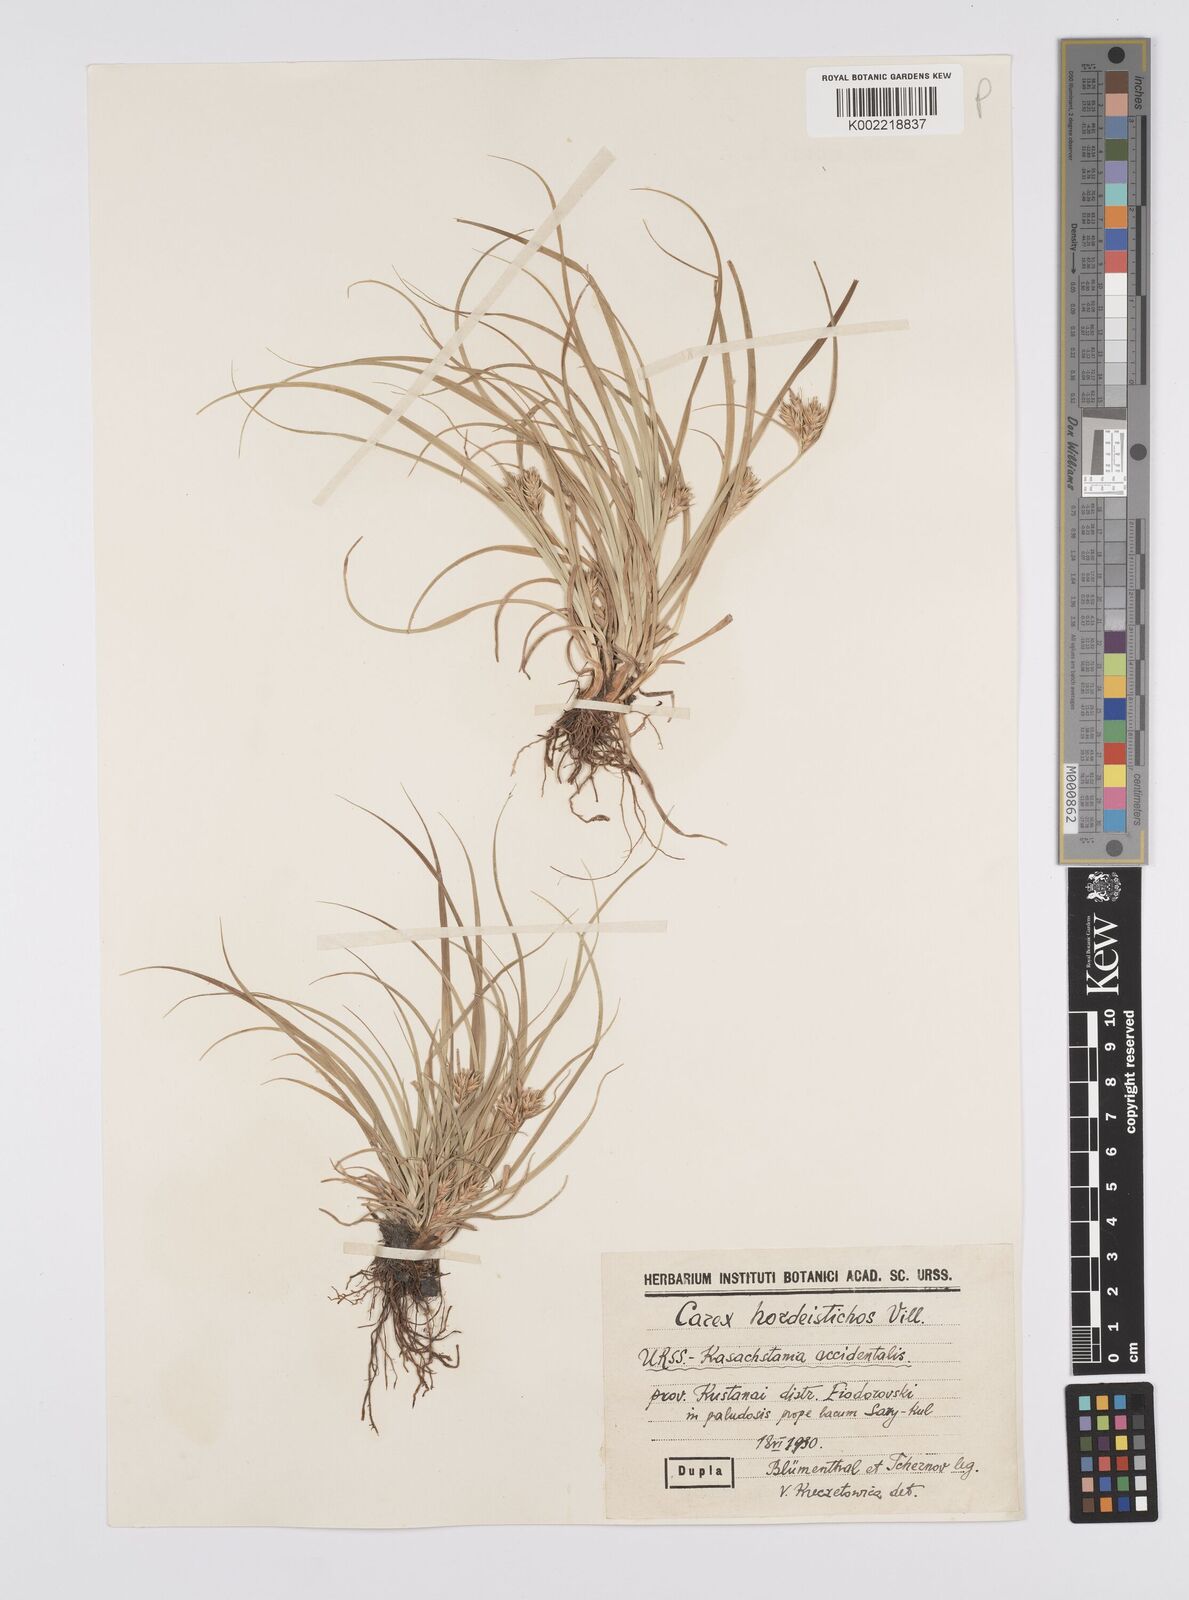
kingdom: Plantae
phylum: Tracheophyta
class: Liliopsida
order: Poales
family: Cyperaceae
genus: Carex
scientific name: Carex secalina
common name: Rye sedge
